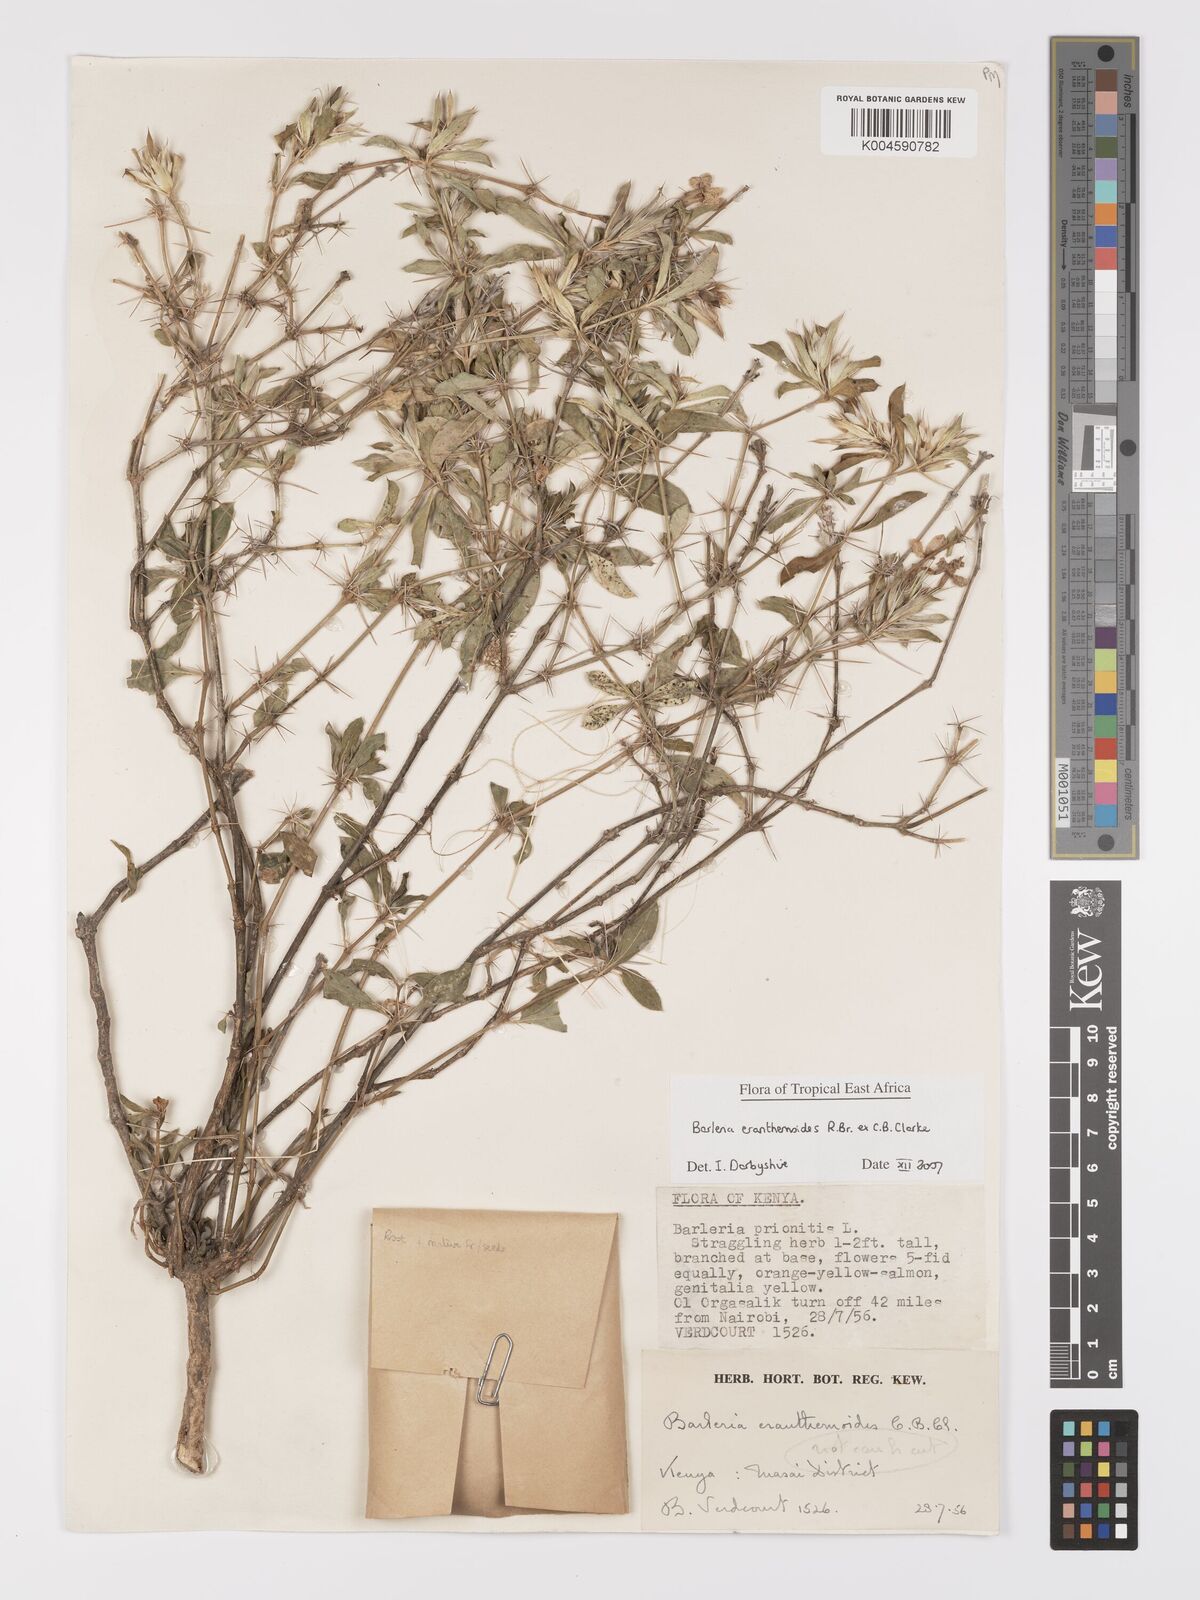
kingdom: Plantae
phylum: Tracheophyta
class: Magnoliopsida
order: Lamiales
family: Acanthaceae
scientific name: Acanthaceae
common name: Acanthaceae
